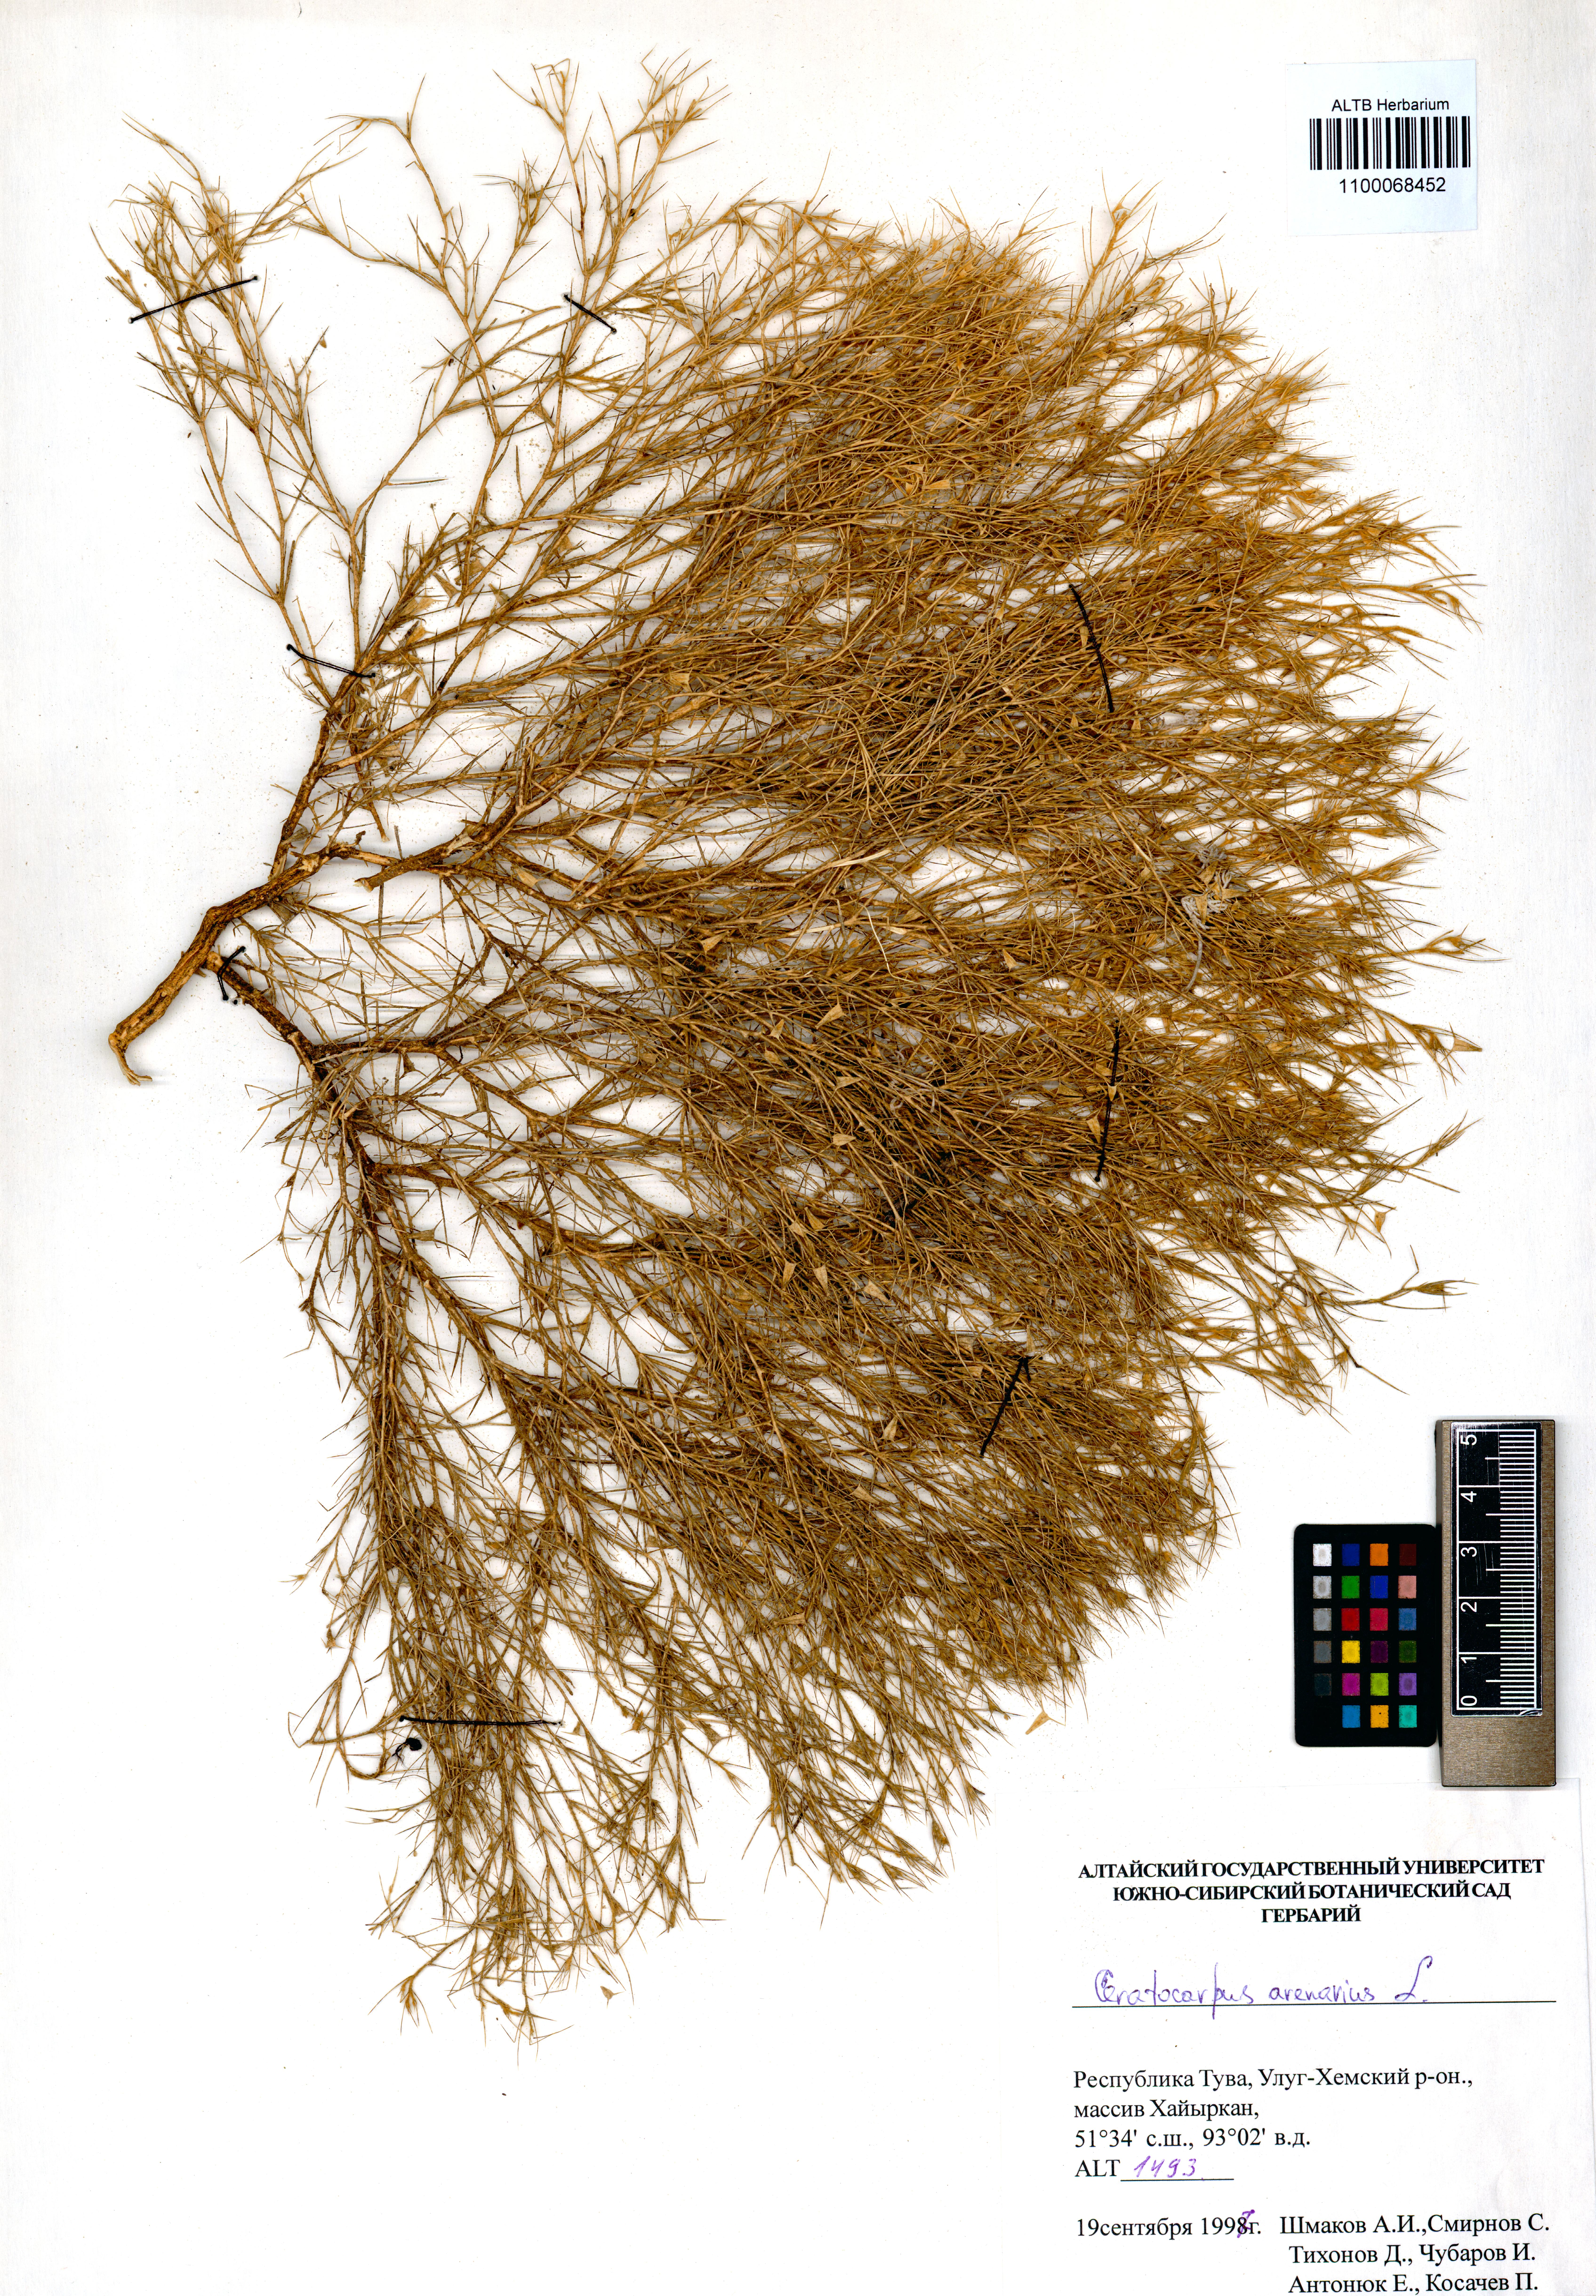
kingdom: Plantae
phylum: Tracheophyta
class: Magnoliopsida
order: Caryophyllales
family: Amaranthaceae
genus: Ceratocarpus
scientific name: Ceratocarpus arenarius
